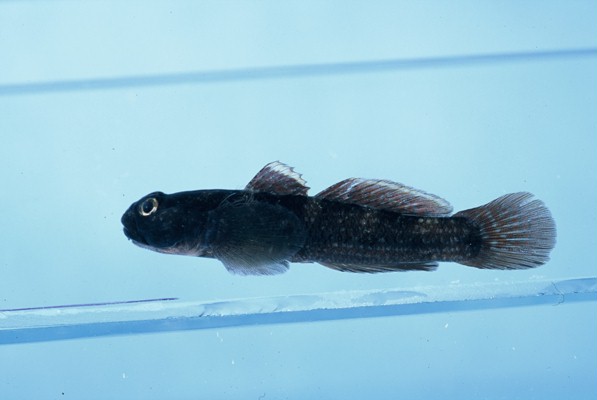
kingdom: Animalia
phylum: Chordata
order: Perciformes
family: Gobiidae
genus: Bathygobius
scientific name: Bathygobius cocosensis
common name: Cocos frillgoby
